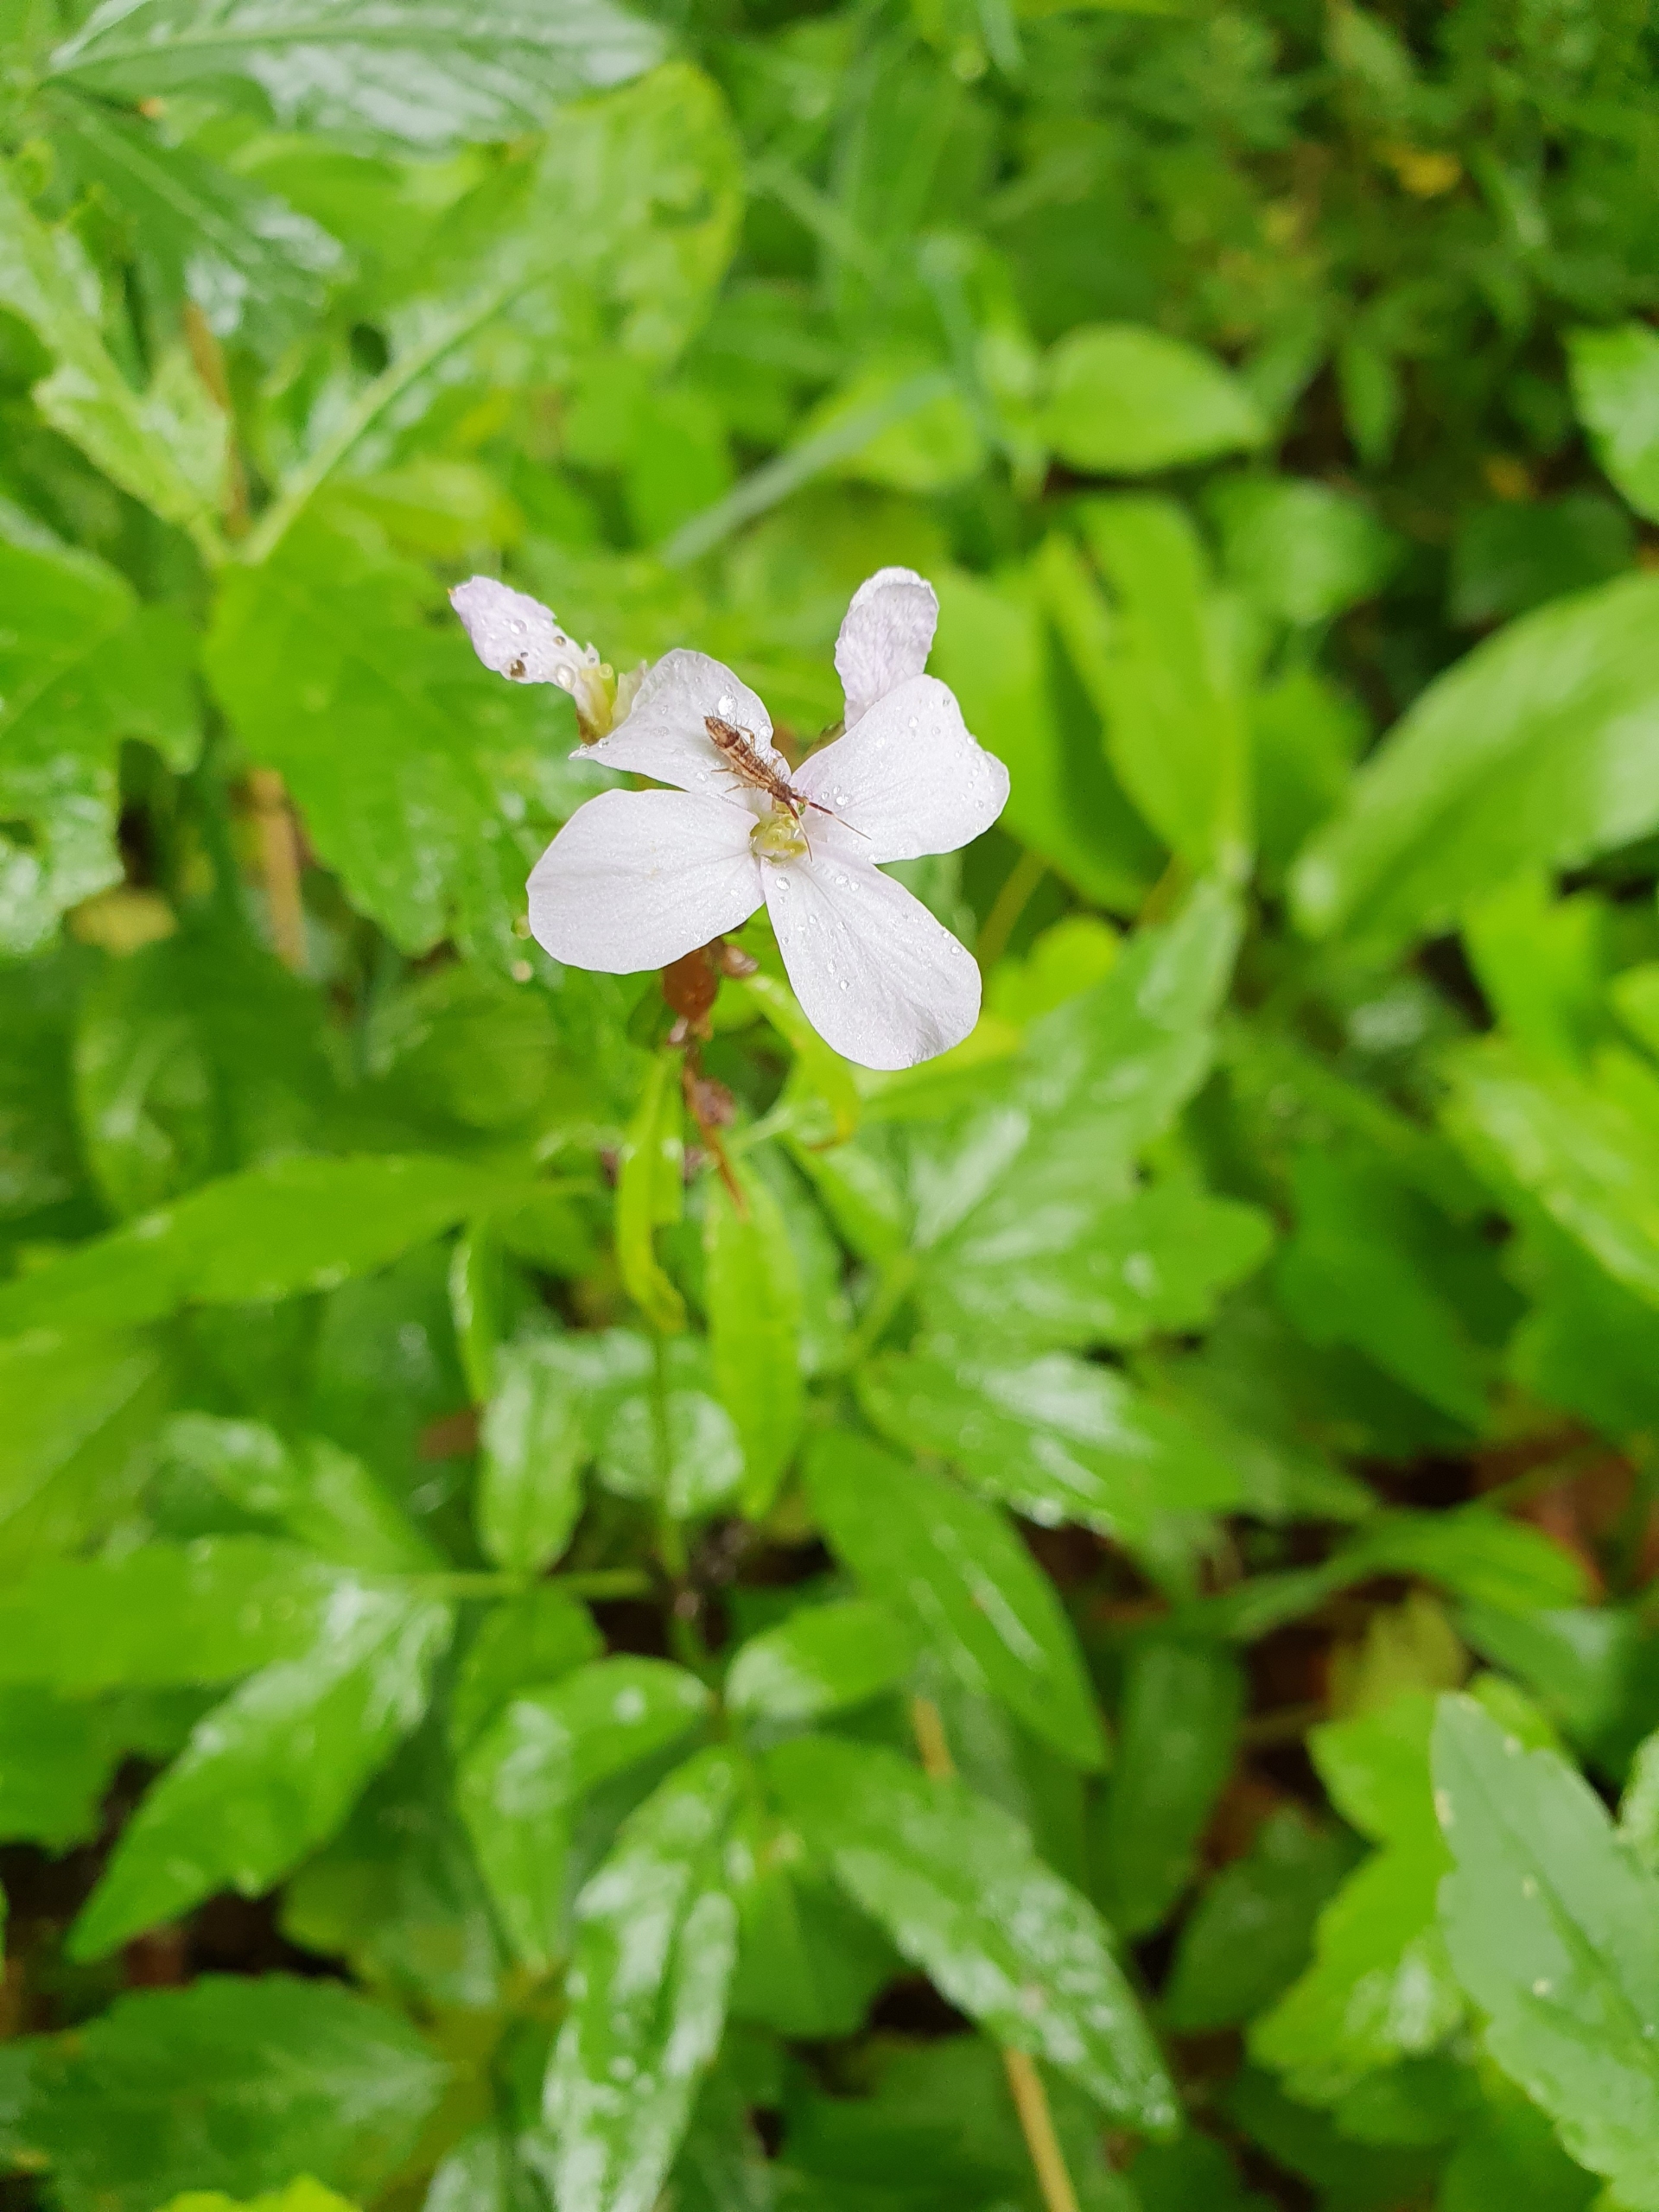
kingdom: Plantae
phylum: Tracheophyta
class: Magnoliopsida
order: Brassicales
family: Brassicaceae
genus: Cardamine
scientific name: Cardamine bulbifera
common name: Tandrod
